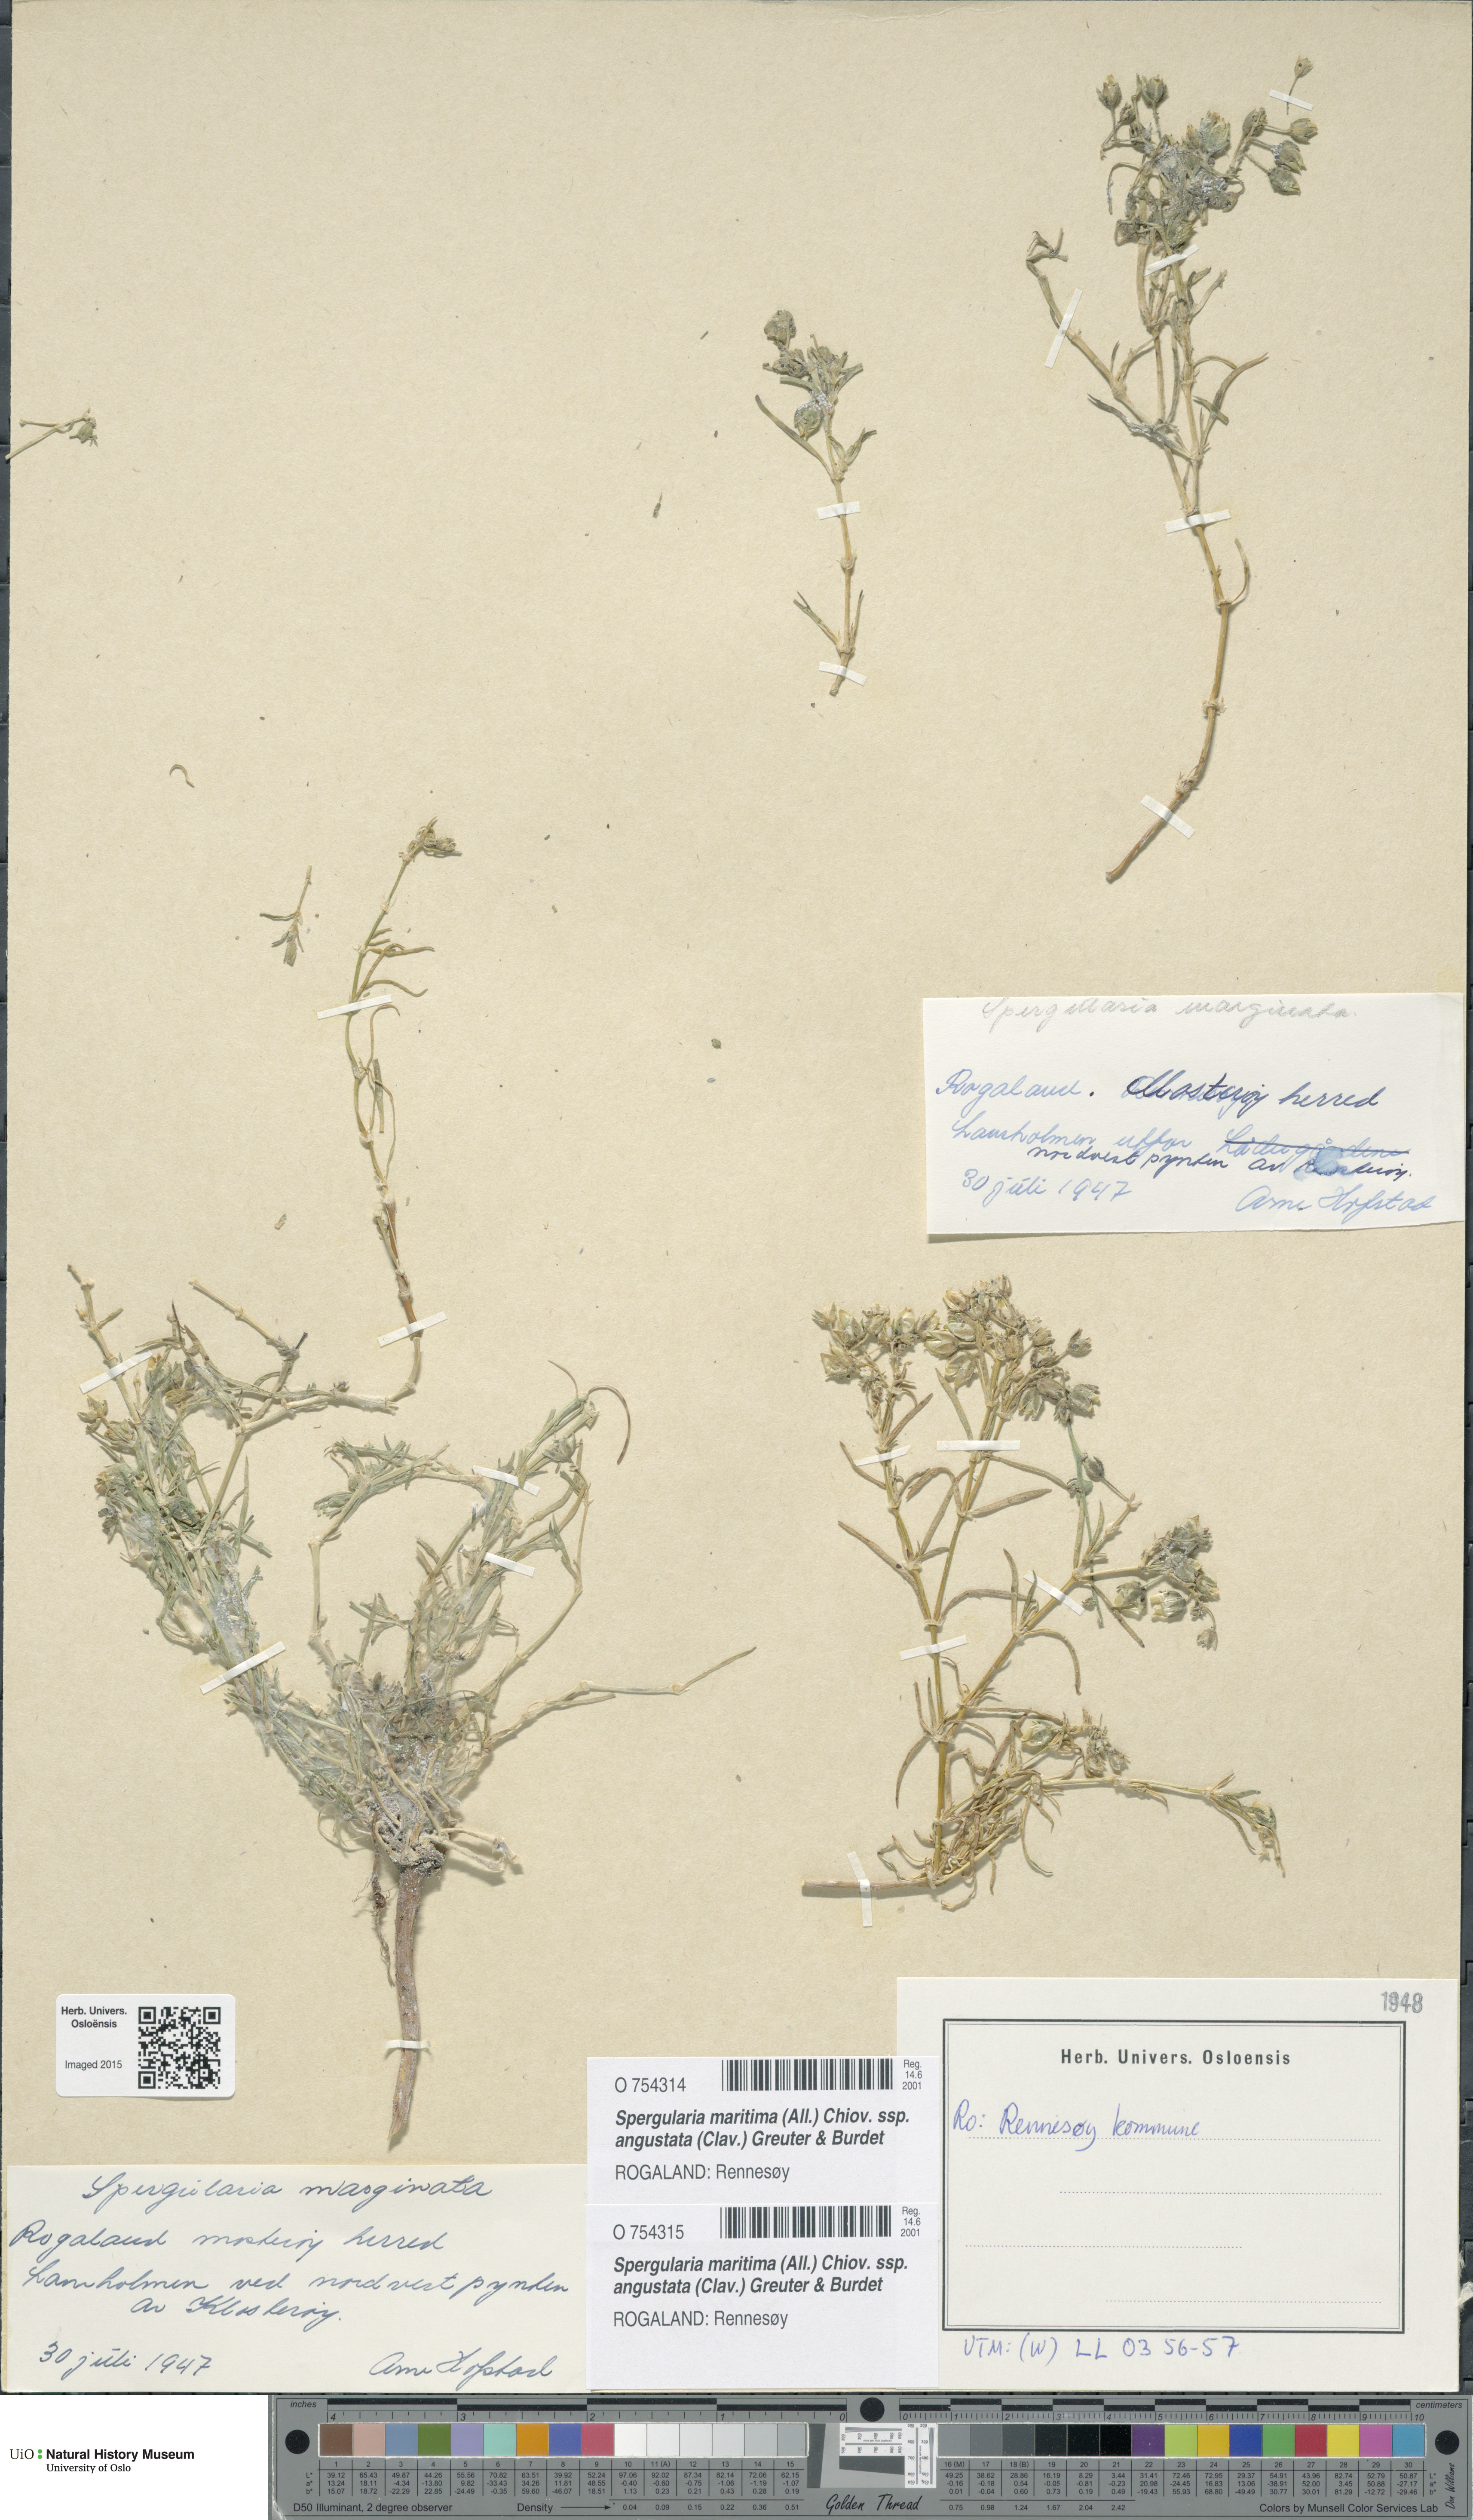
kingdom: Plantae
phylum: Tracheophyta
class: Magnoliopsida
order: Caryophyllales
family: Caryophyllaceae
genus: Spergularia
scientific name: Spergularia media
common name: Greater sea-spurrey
